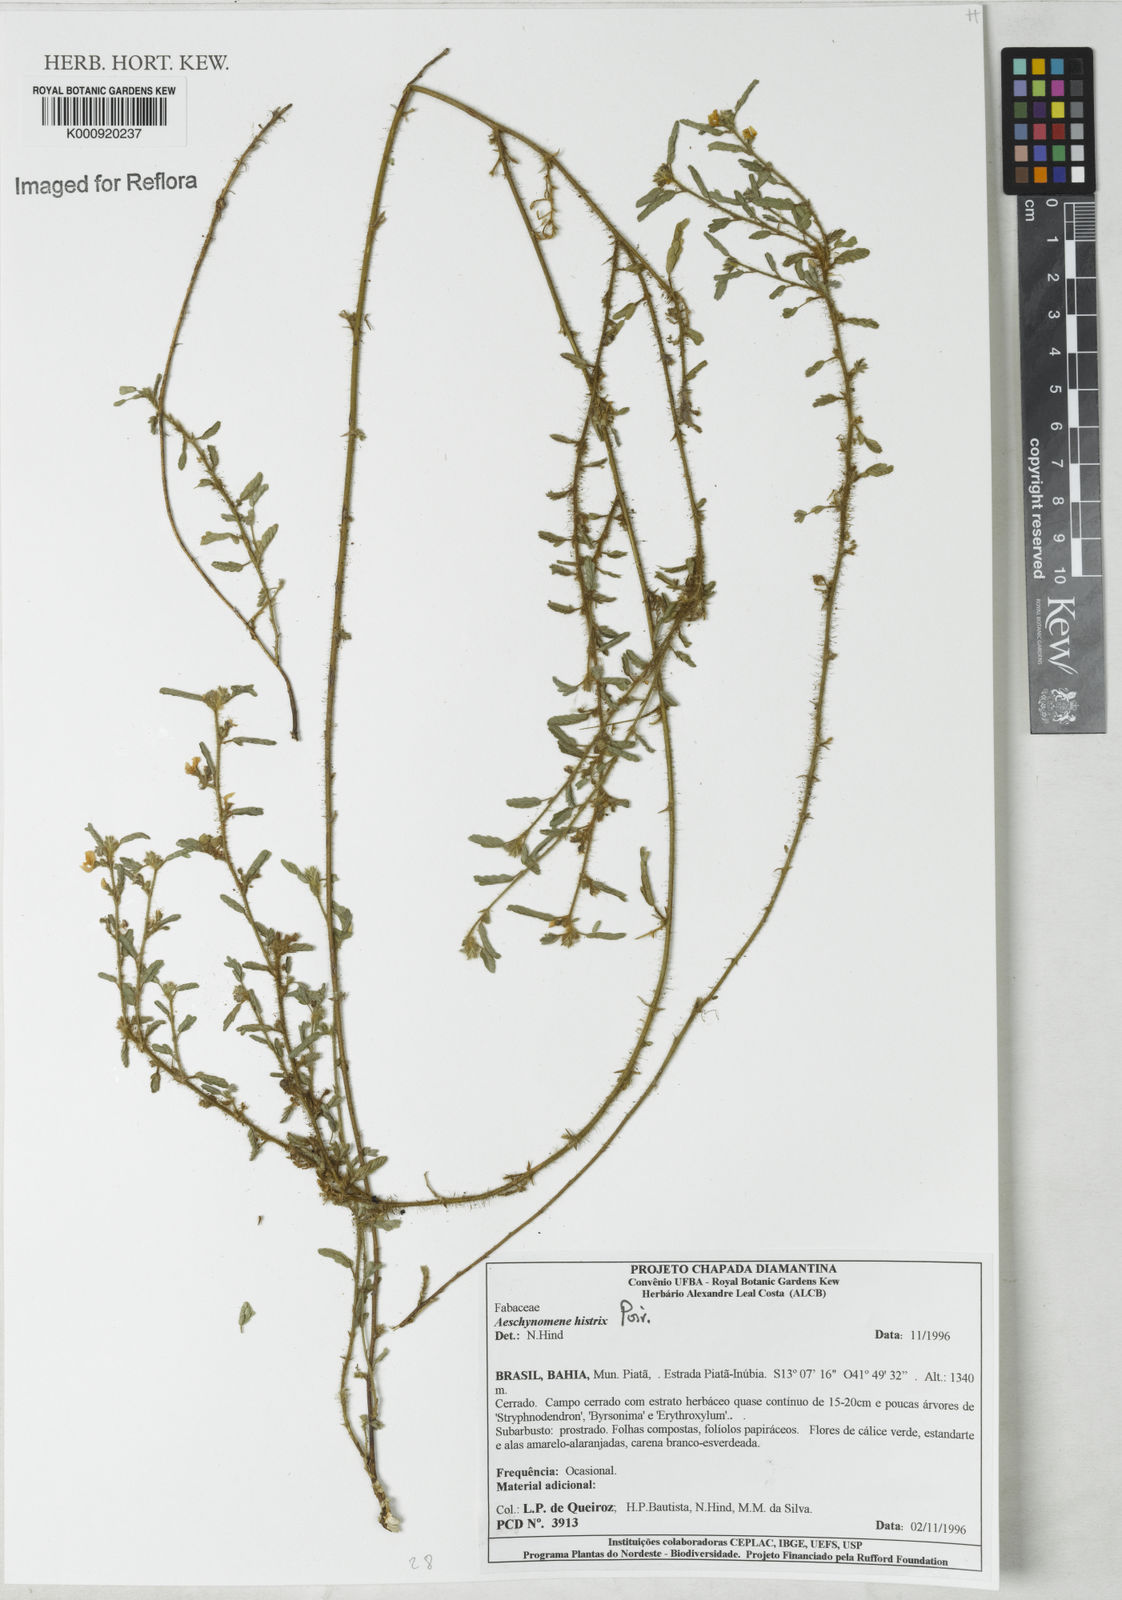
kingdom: Plantae
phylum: Tracheophyta
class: Magnoliopsida
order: Fabales
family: Fabaceae
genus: Ctenodon
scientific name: Ctenodon histrix
